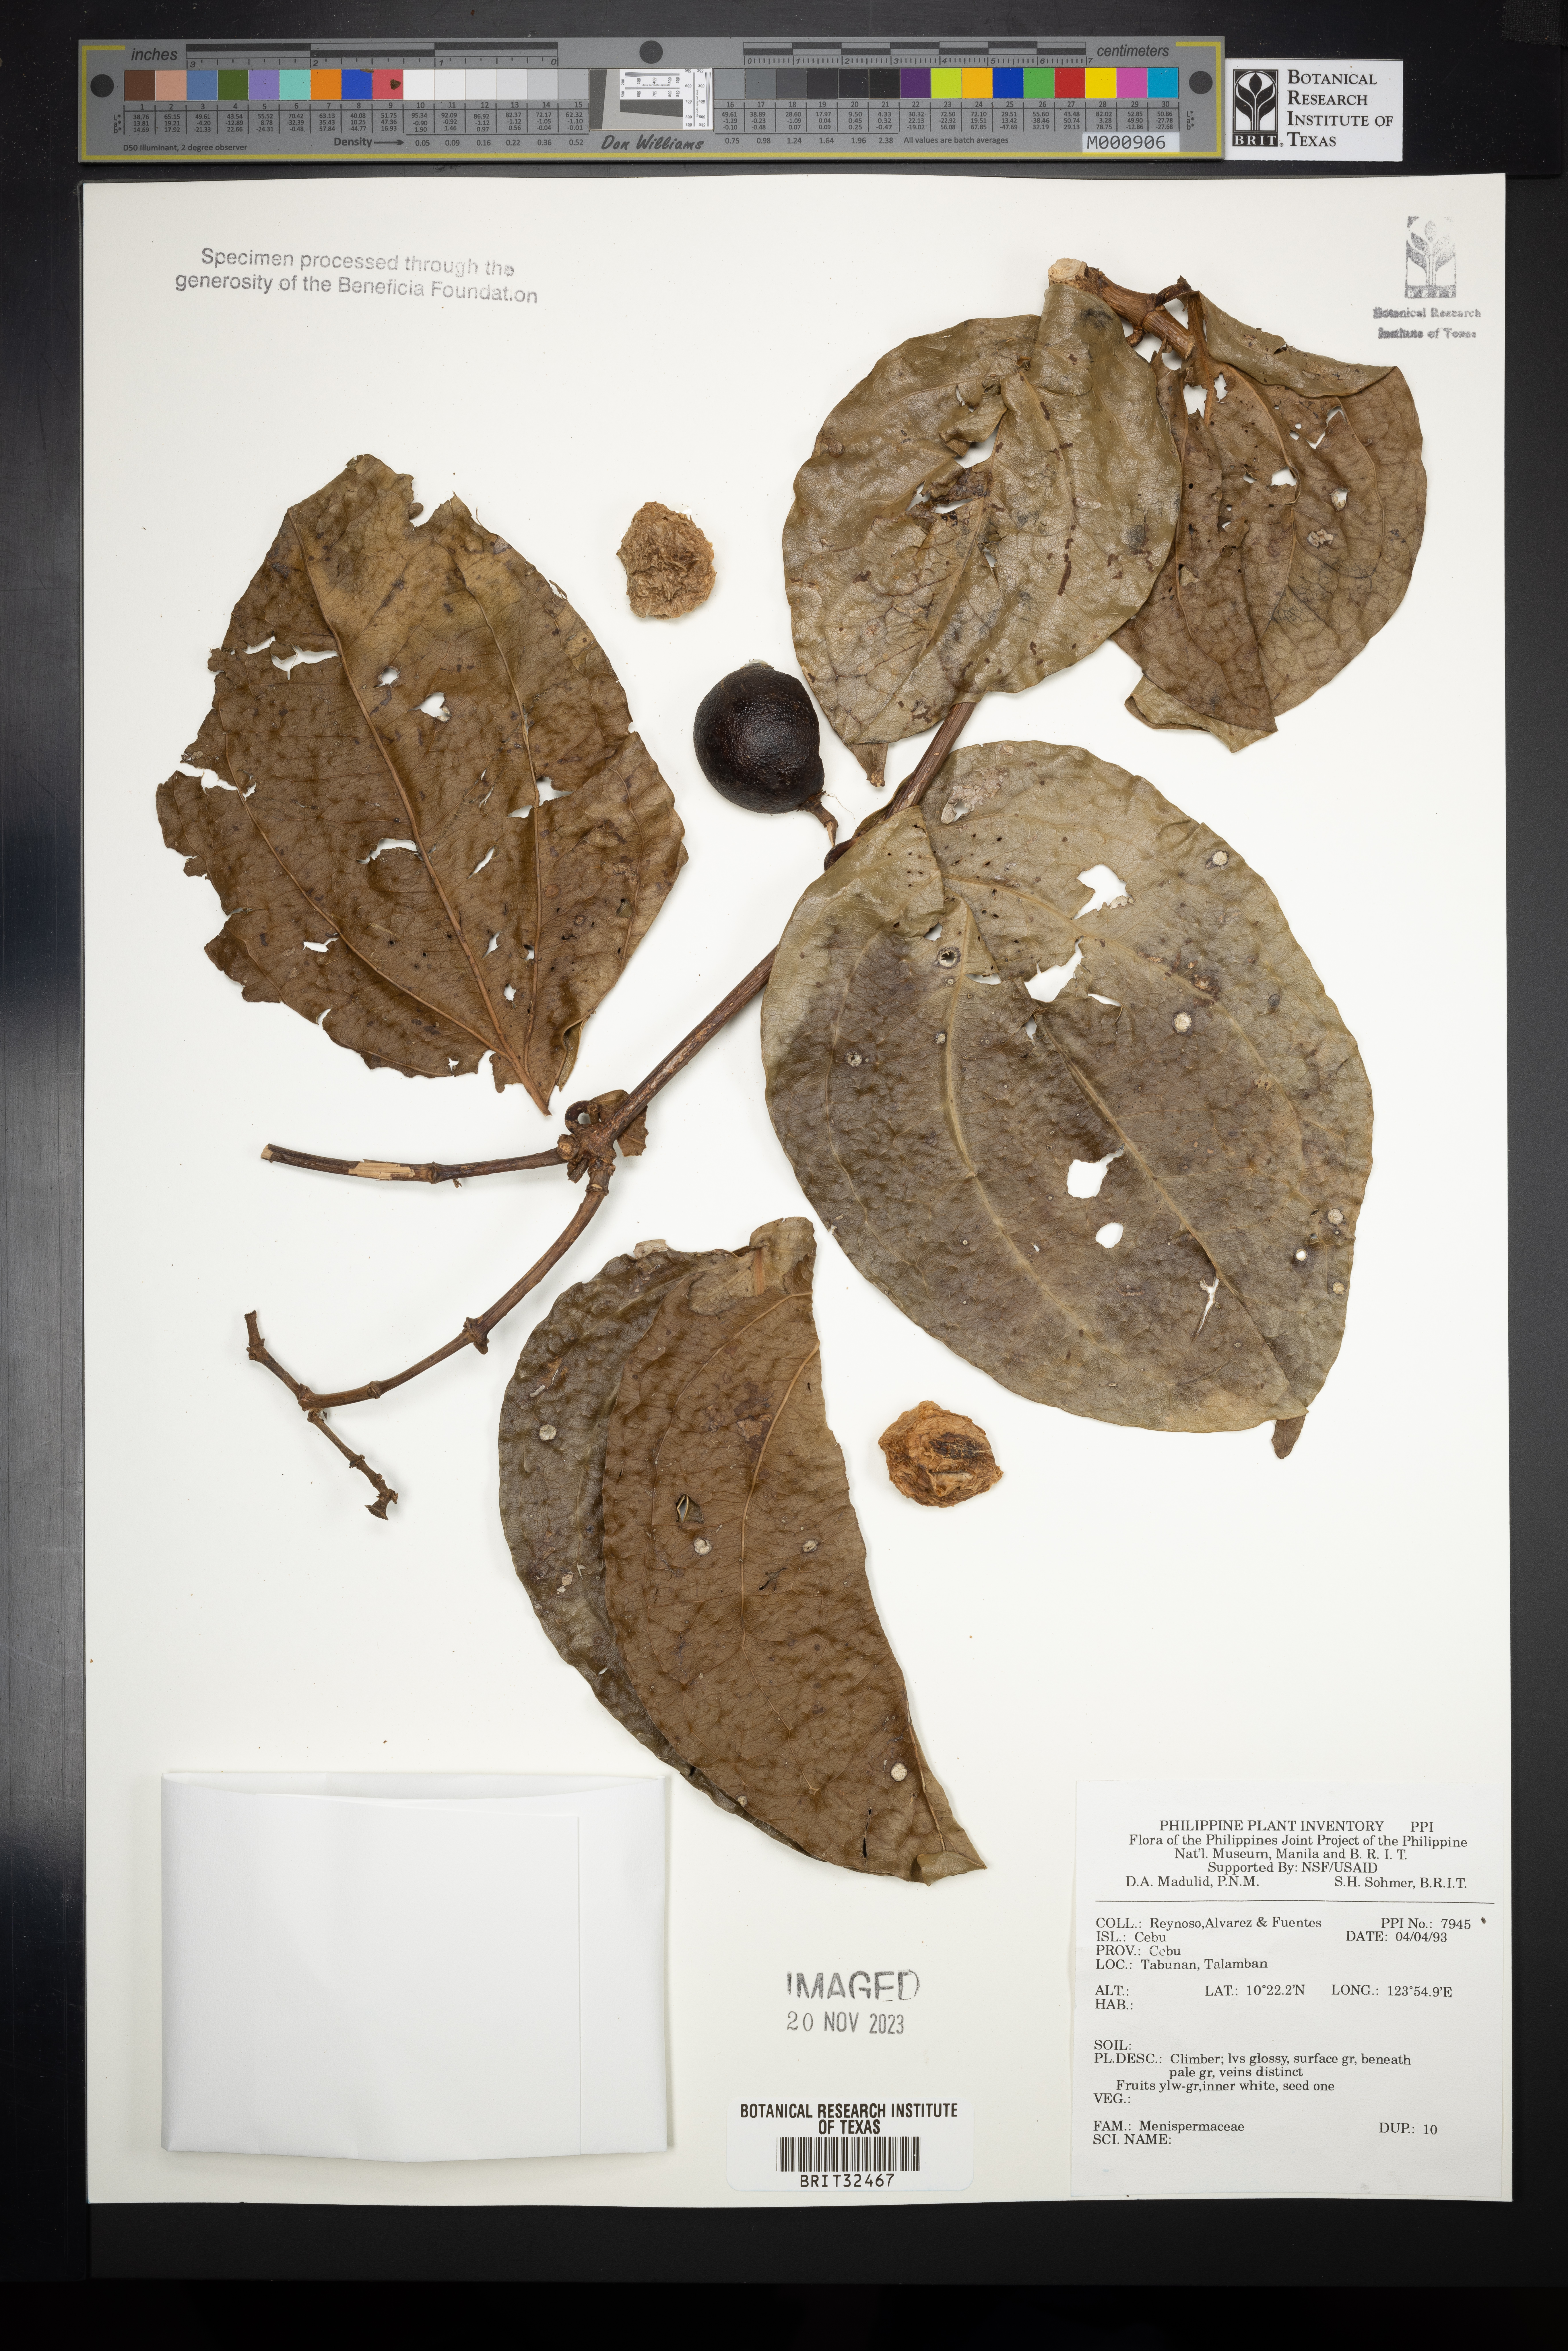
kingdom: Plantae
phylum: Tracheophyta
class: Magnoliopsida
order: Ranunculales
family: Menispermaceae
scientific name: Menispermaceae
